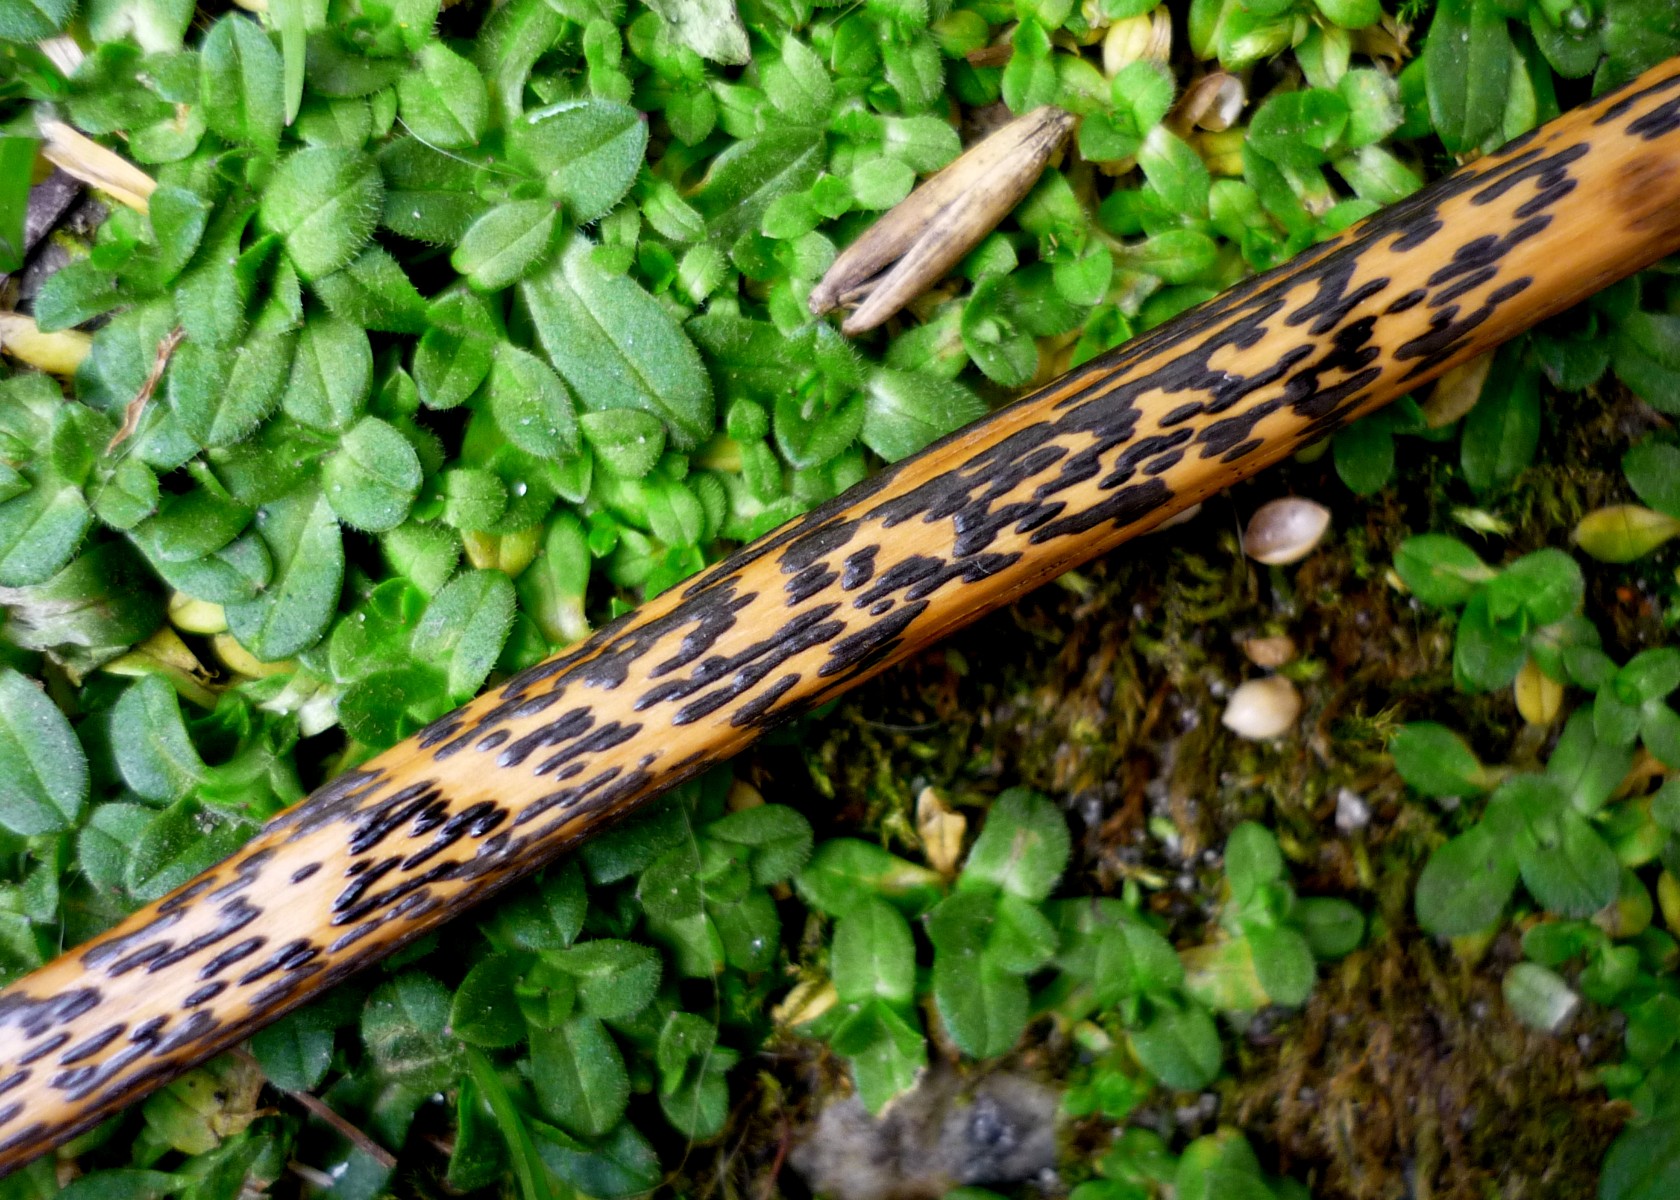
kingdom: Fungi
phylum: Ascomycota
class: Dothideomycetes
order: Pleosporales
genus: Rhopographus
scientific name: Rhopographus filicinus
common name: Bracken map
